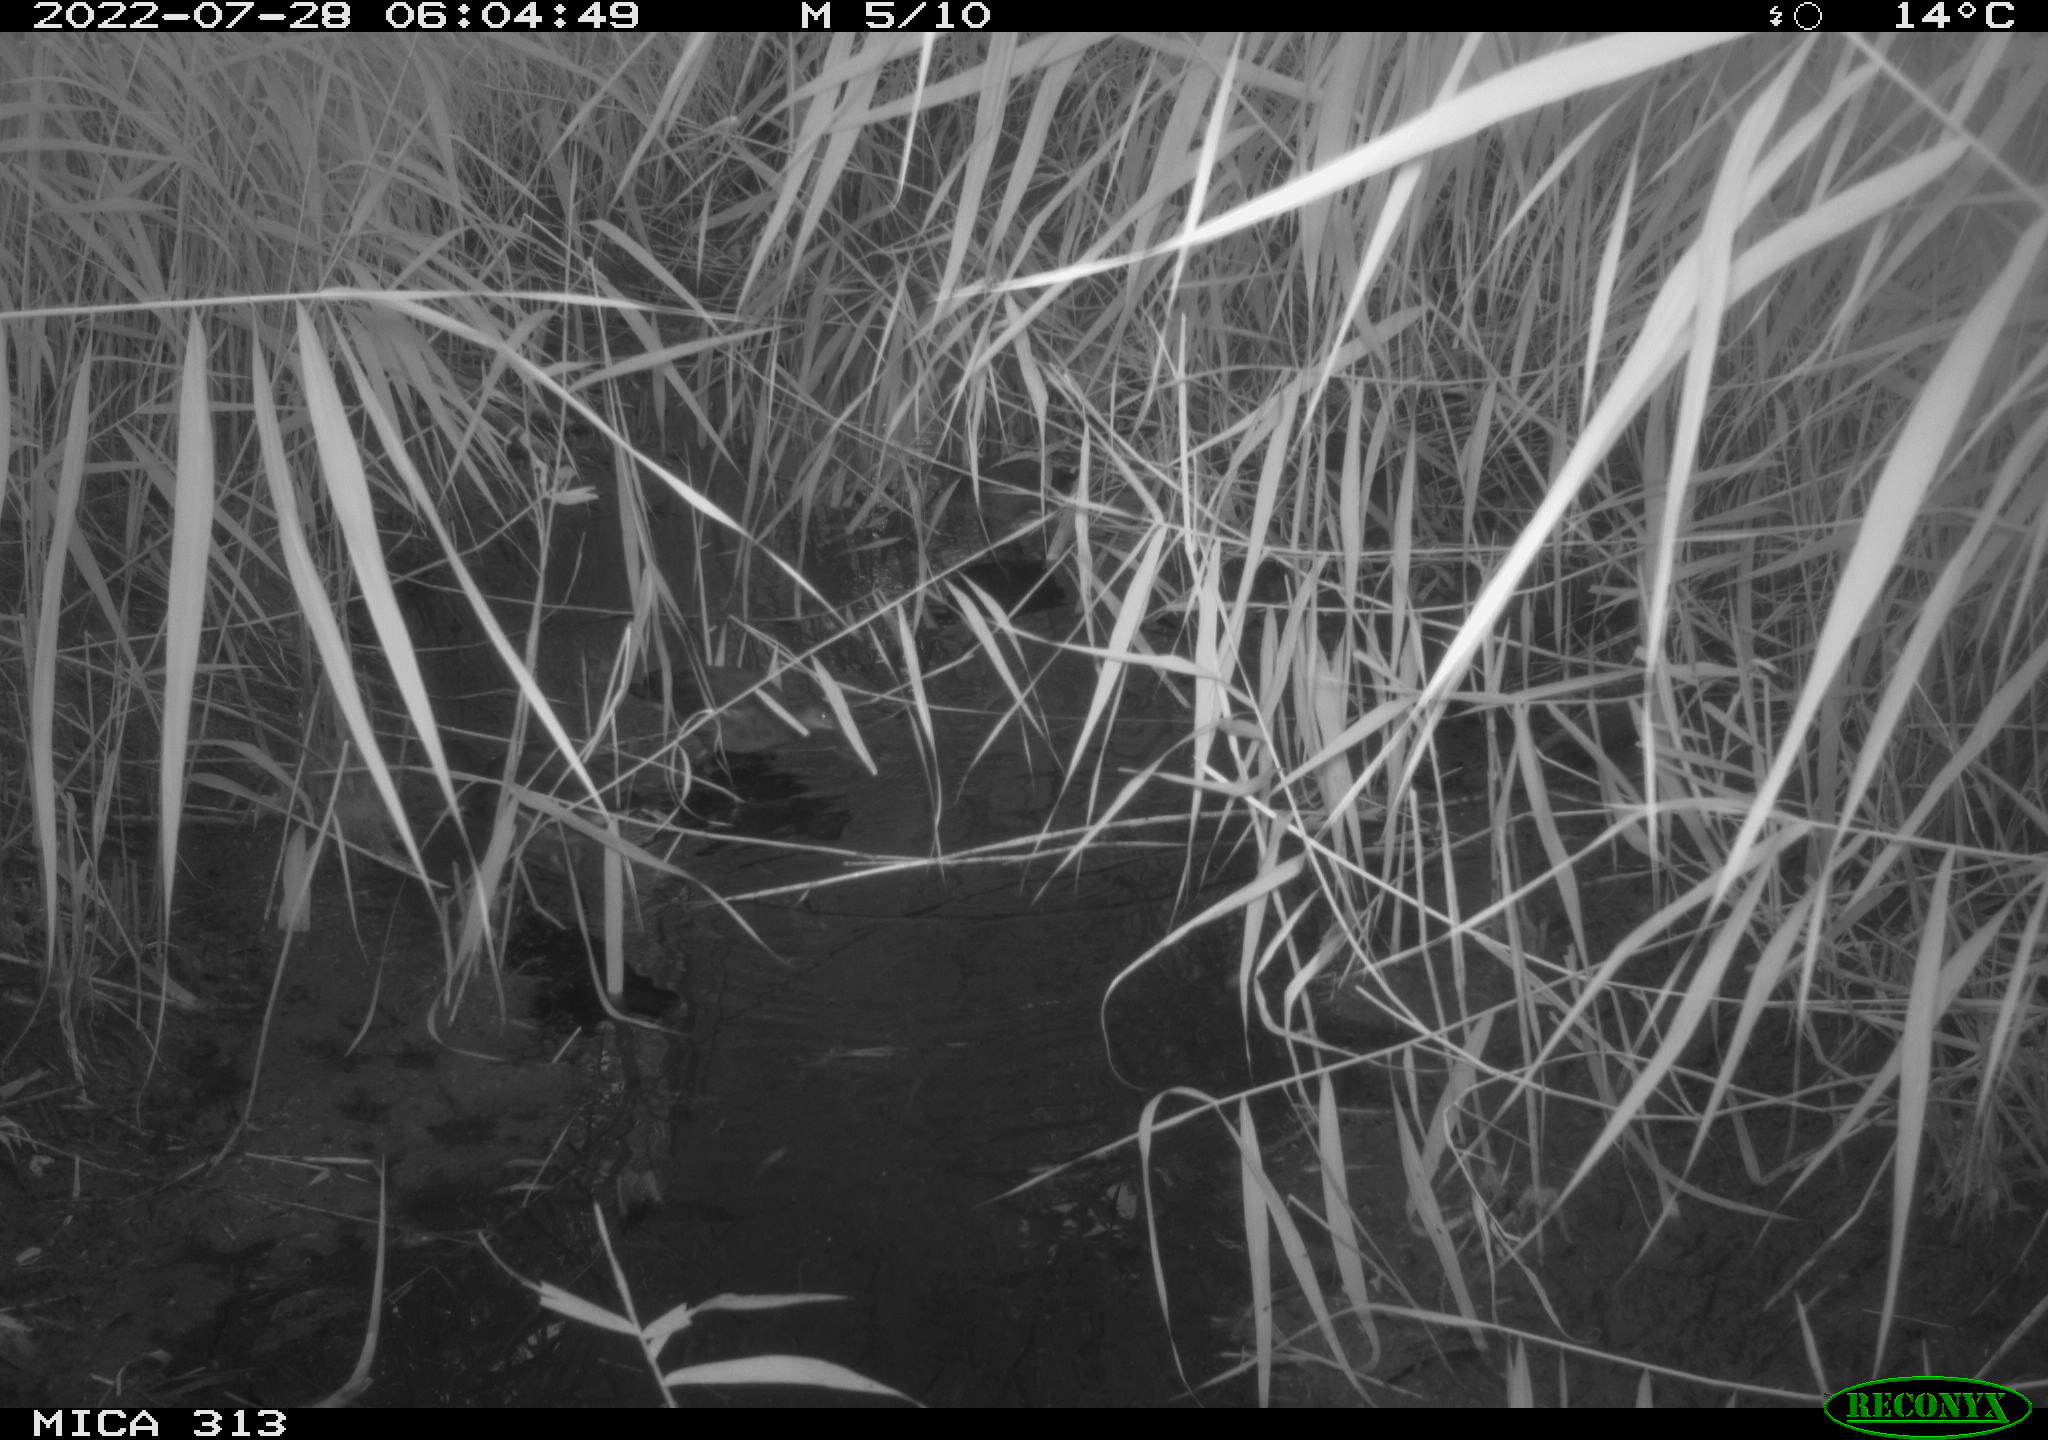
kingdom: Animalia
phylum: Chordata
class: Aves
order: Anseriformes
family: Anatidae
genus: Mareca
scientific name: Mareca strepera
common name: Gadwall
